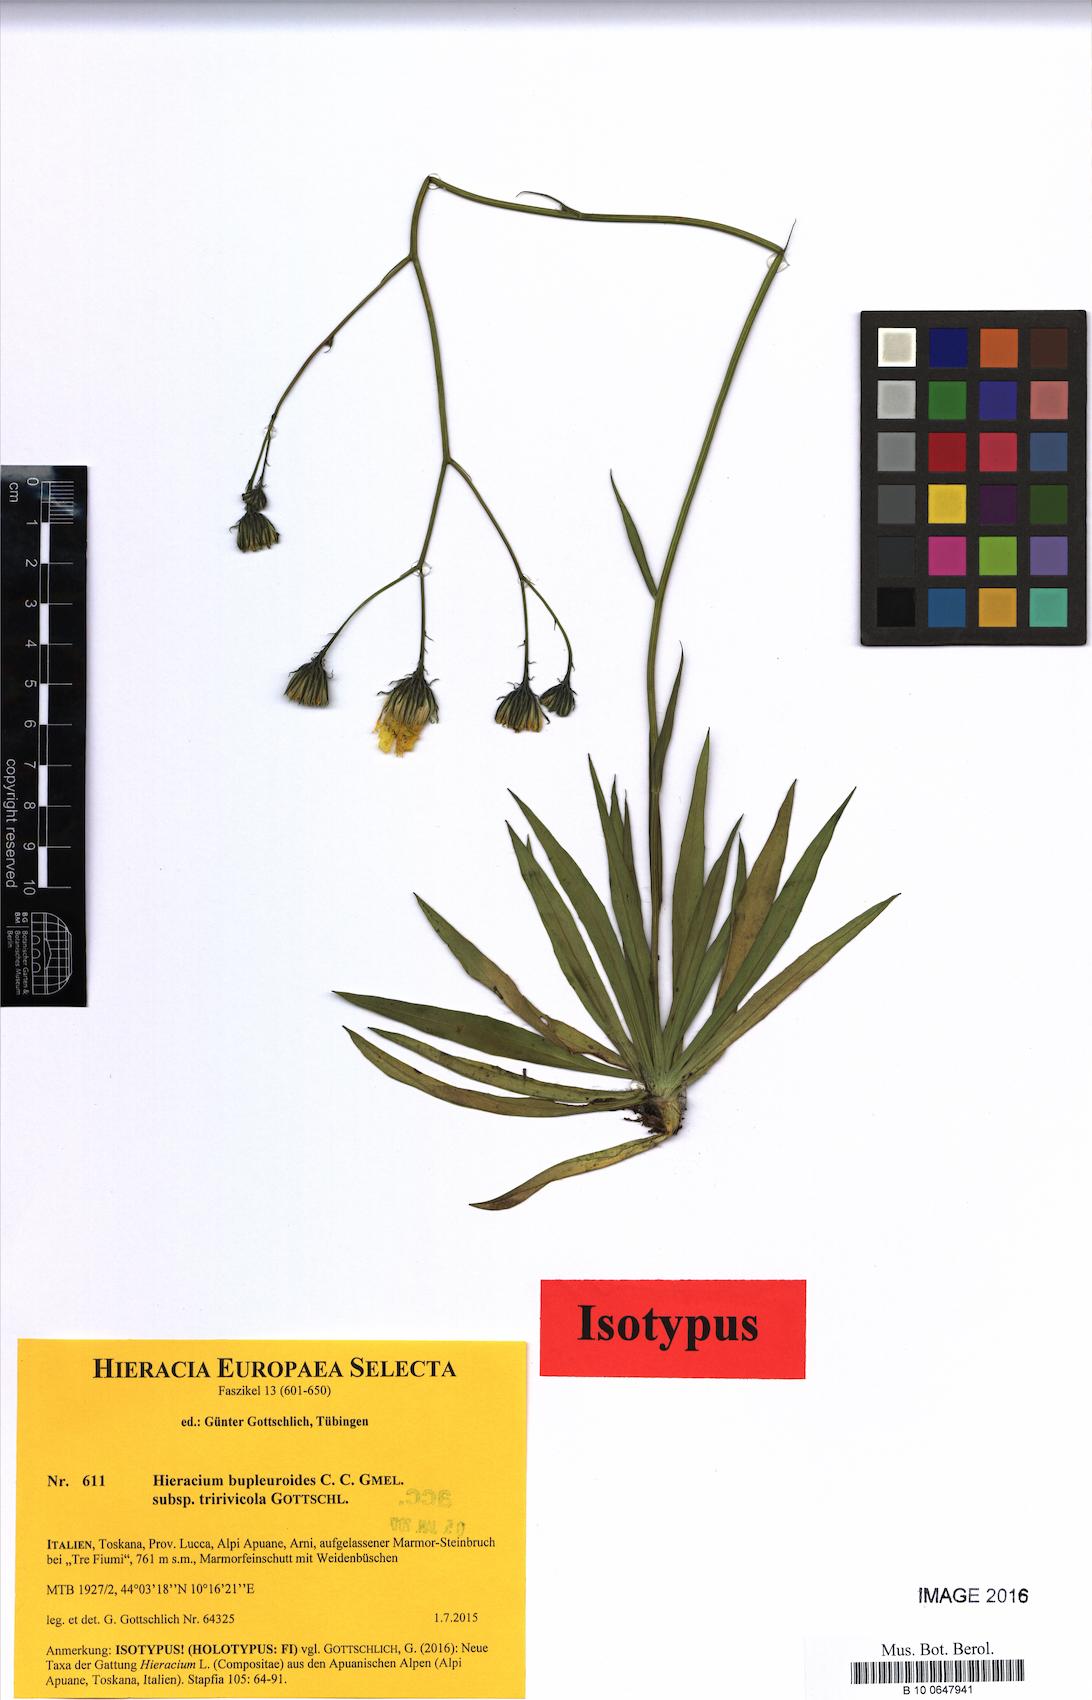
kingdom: Plantae
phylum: Tracheophyta
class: Magnoliopsida
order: Asterales
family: Asteraceae
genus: Hieracium
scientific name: Hieracium bupleuroides
